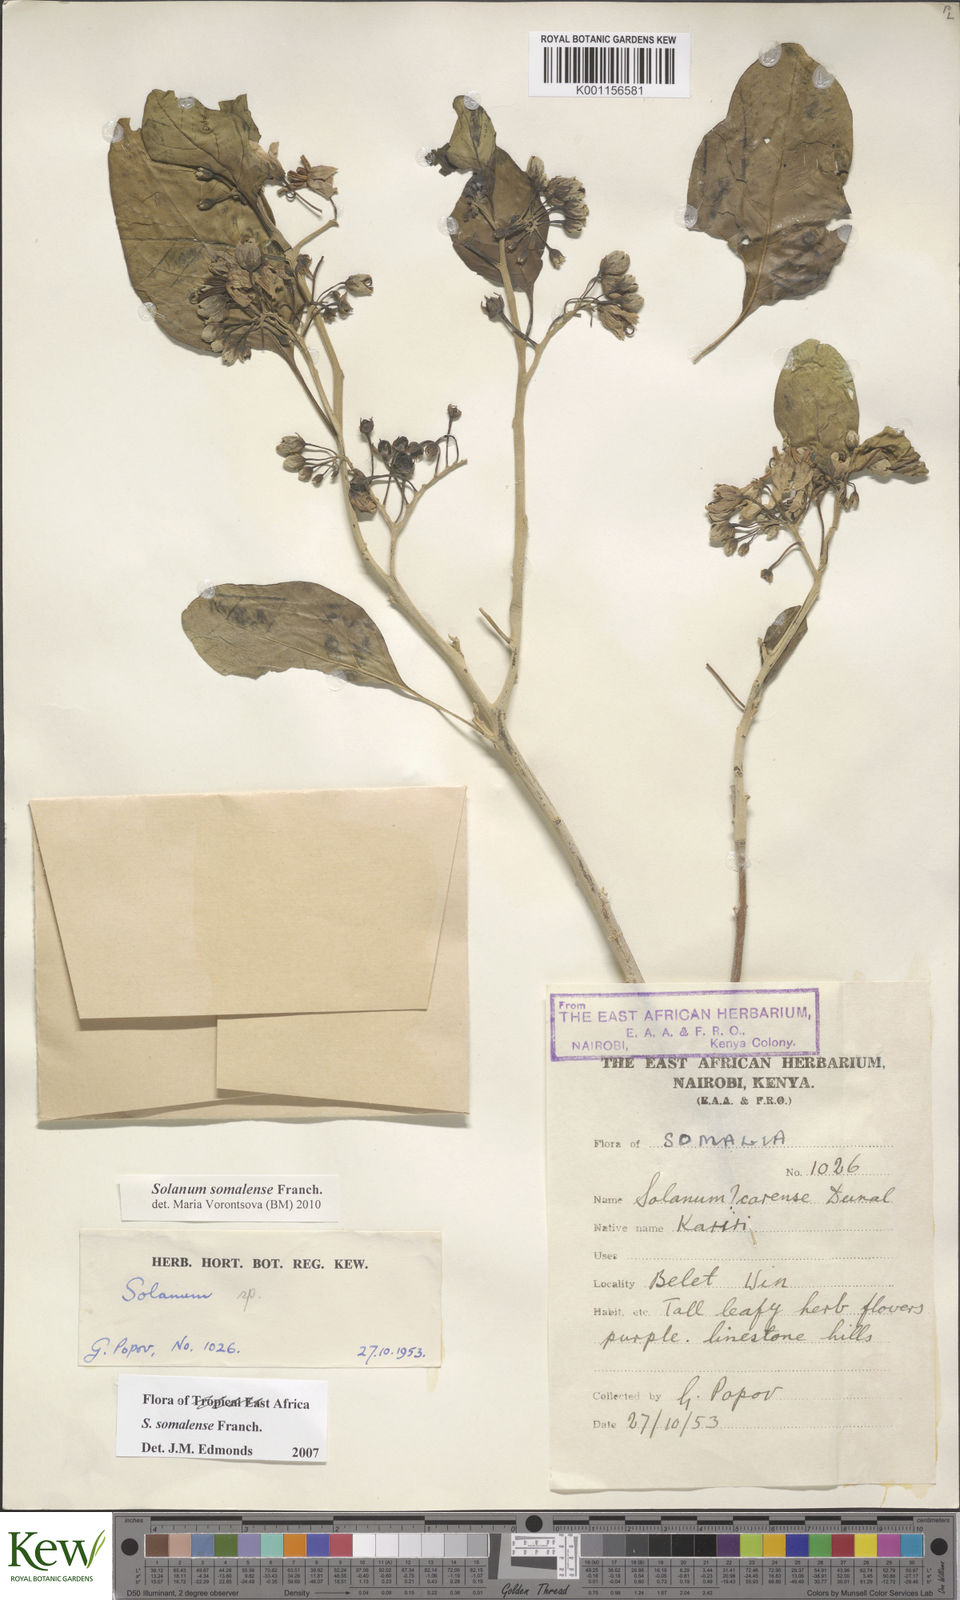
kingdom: Plantae
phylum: Tracheophyta
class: Magnoliopsida
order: Solanales
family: Solanaceae
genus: Solanum
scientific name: Solanum somalense
